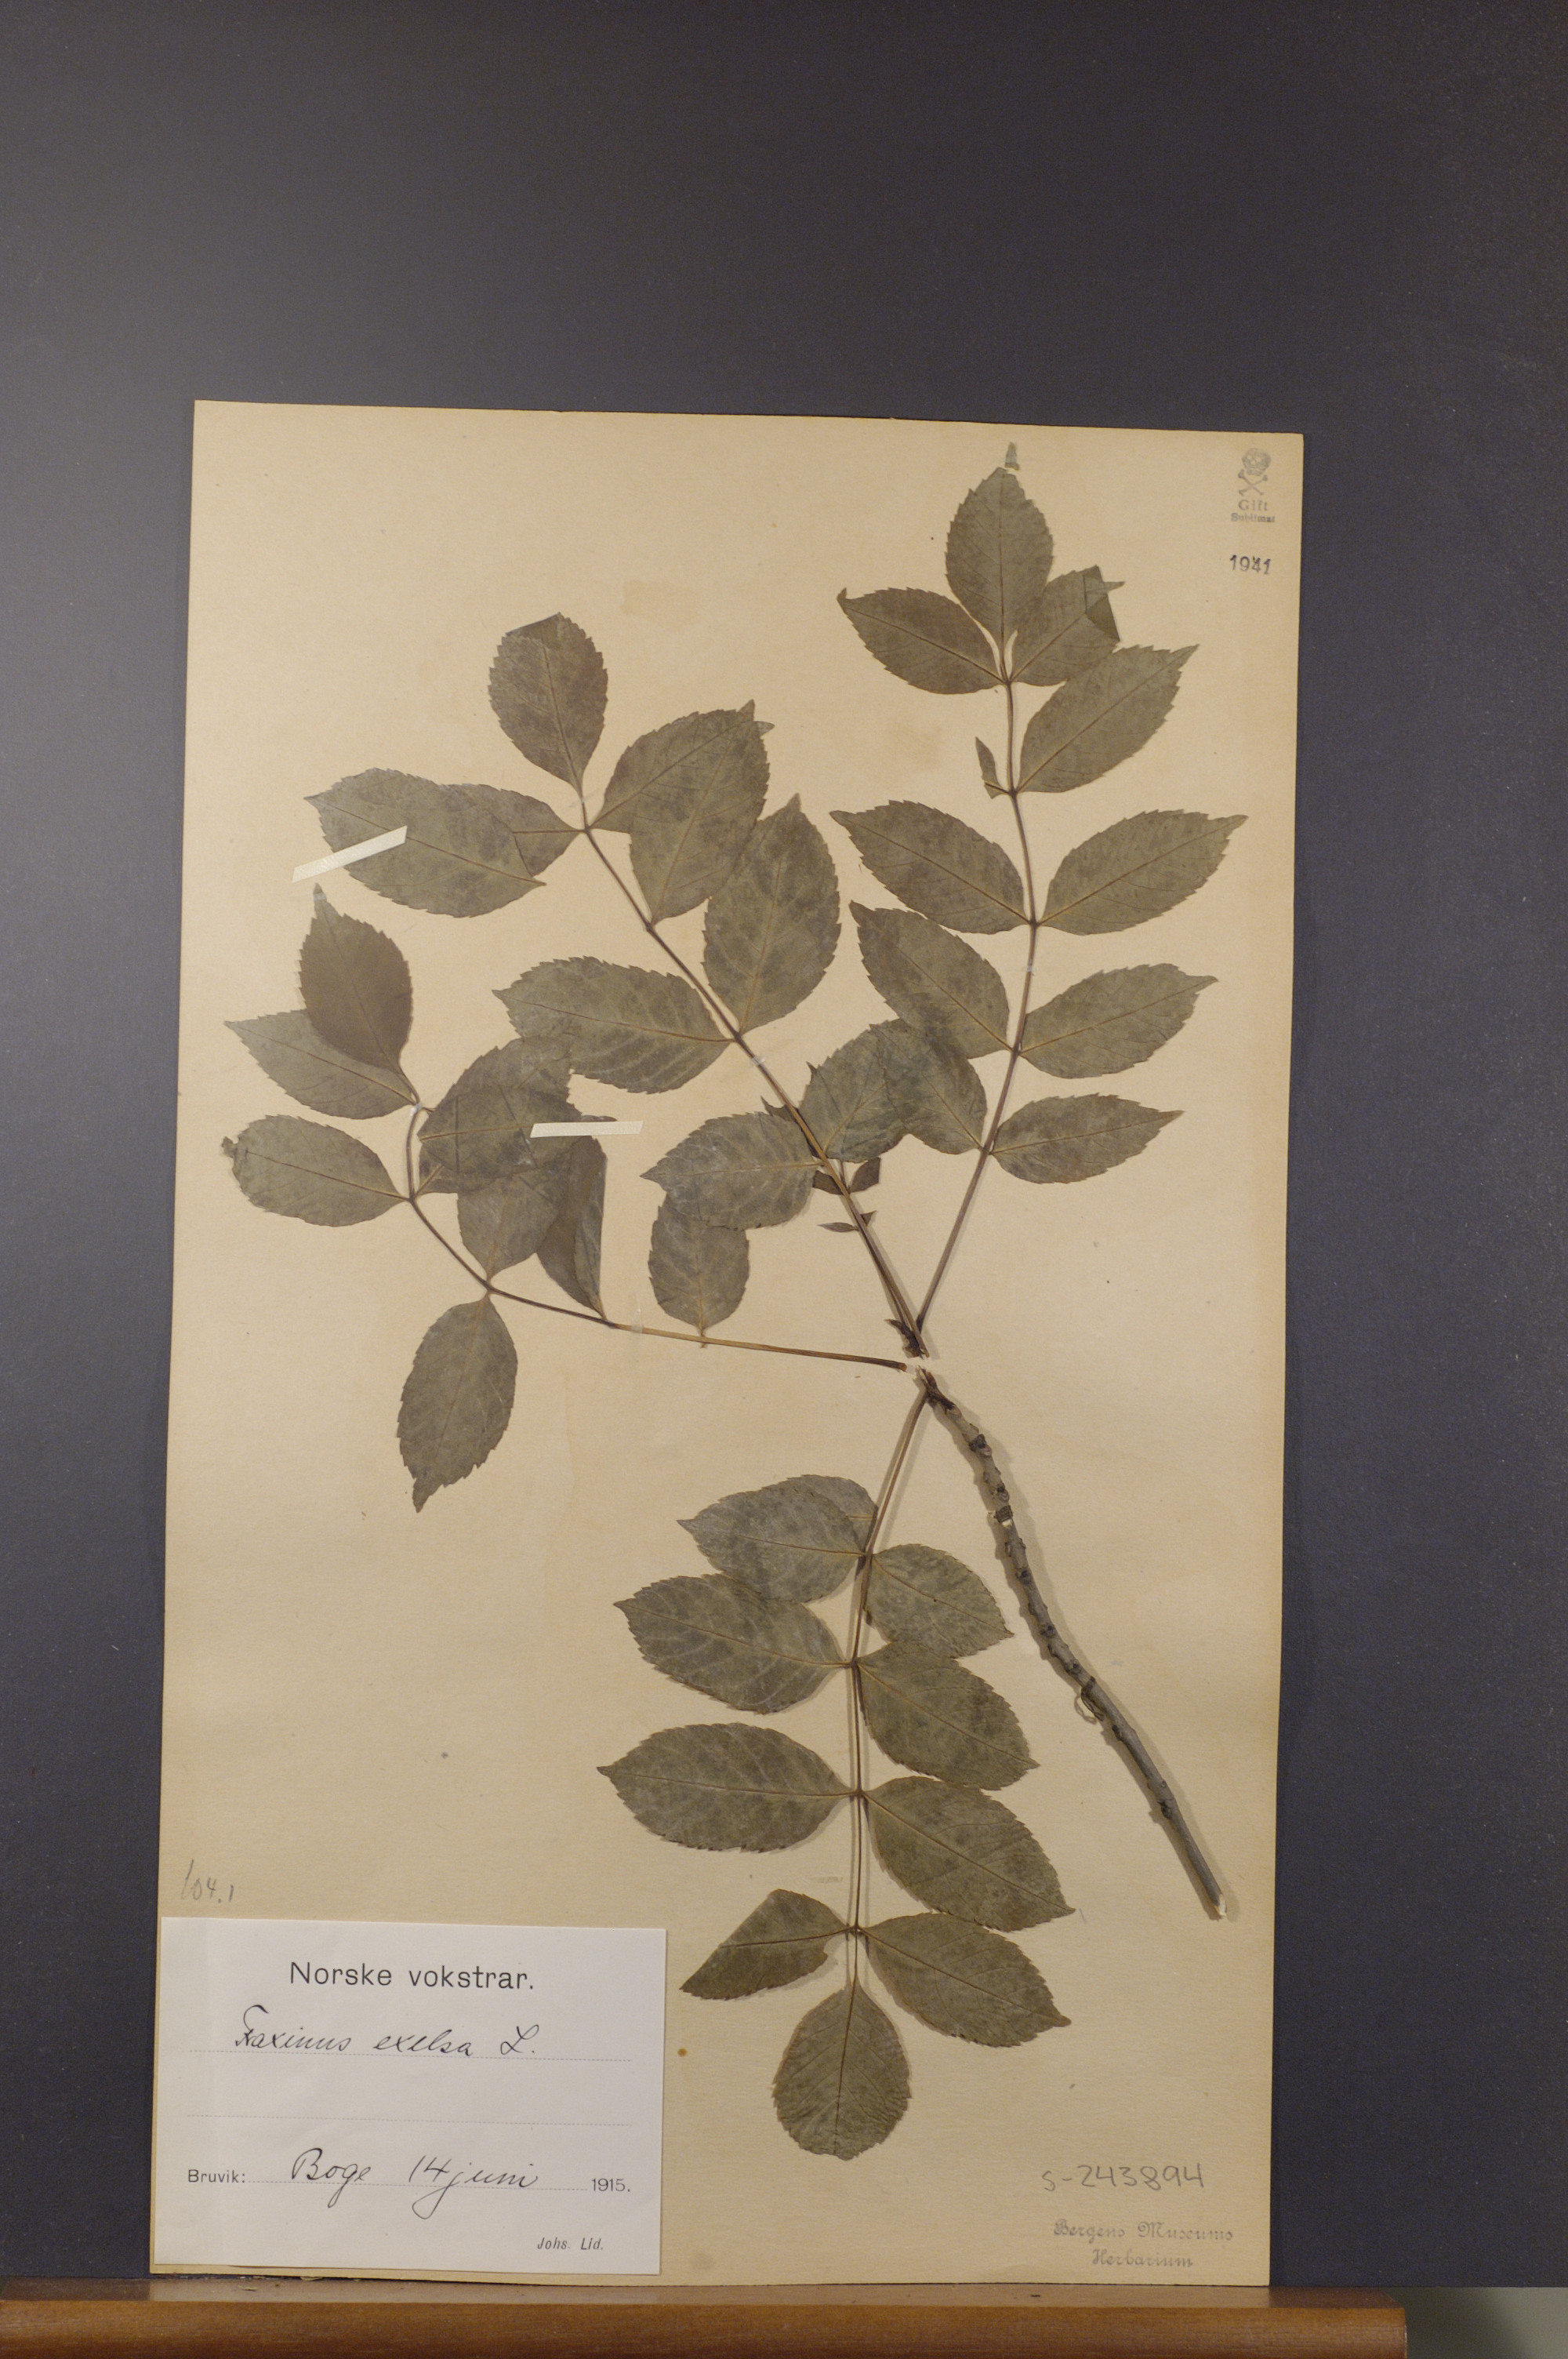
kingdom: Plantae
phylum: Tracheophyta
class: Magnoliopsida
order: Lamiales
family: Oleaceae
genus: Fraxinus
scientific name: Fraxinus excelsior
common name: European ash
